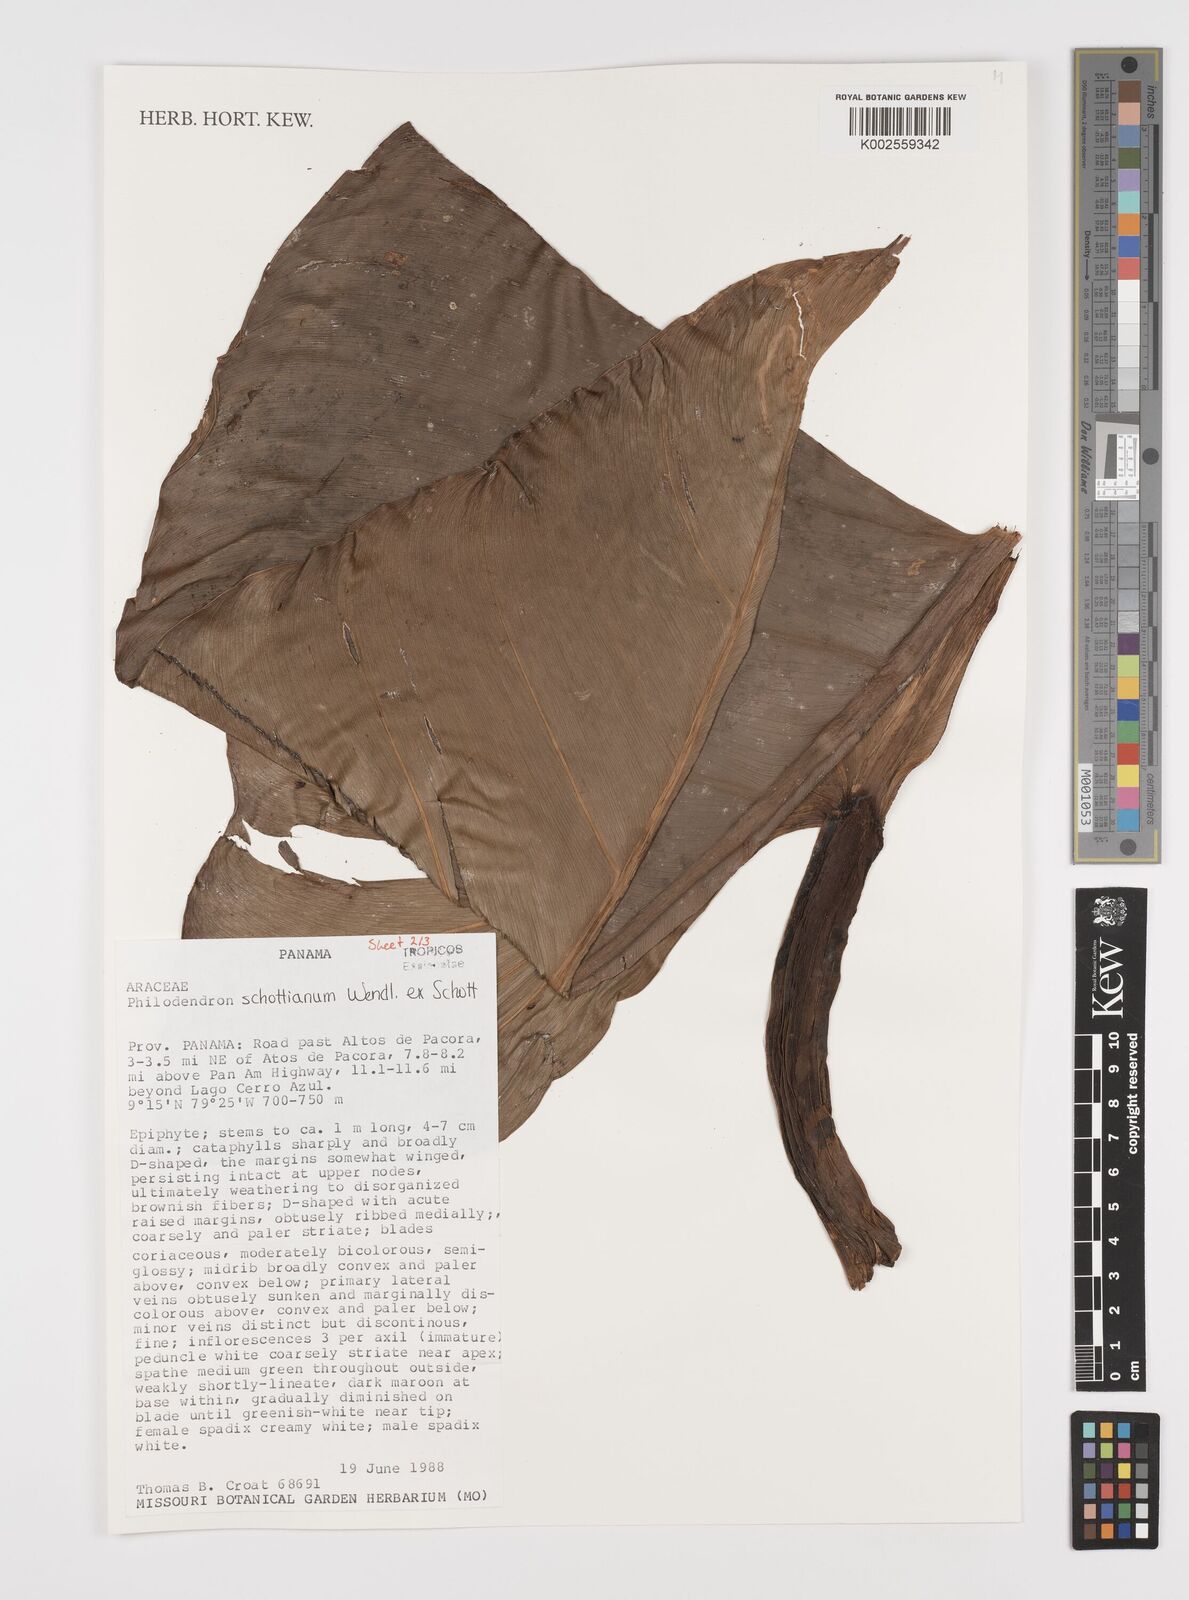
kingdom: Plantae
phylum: Tracheophyta
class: Liliopsida
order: Alismatales
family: Araceae
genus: Philodendron
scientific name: Philodendron schottianum
